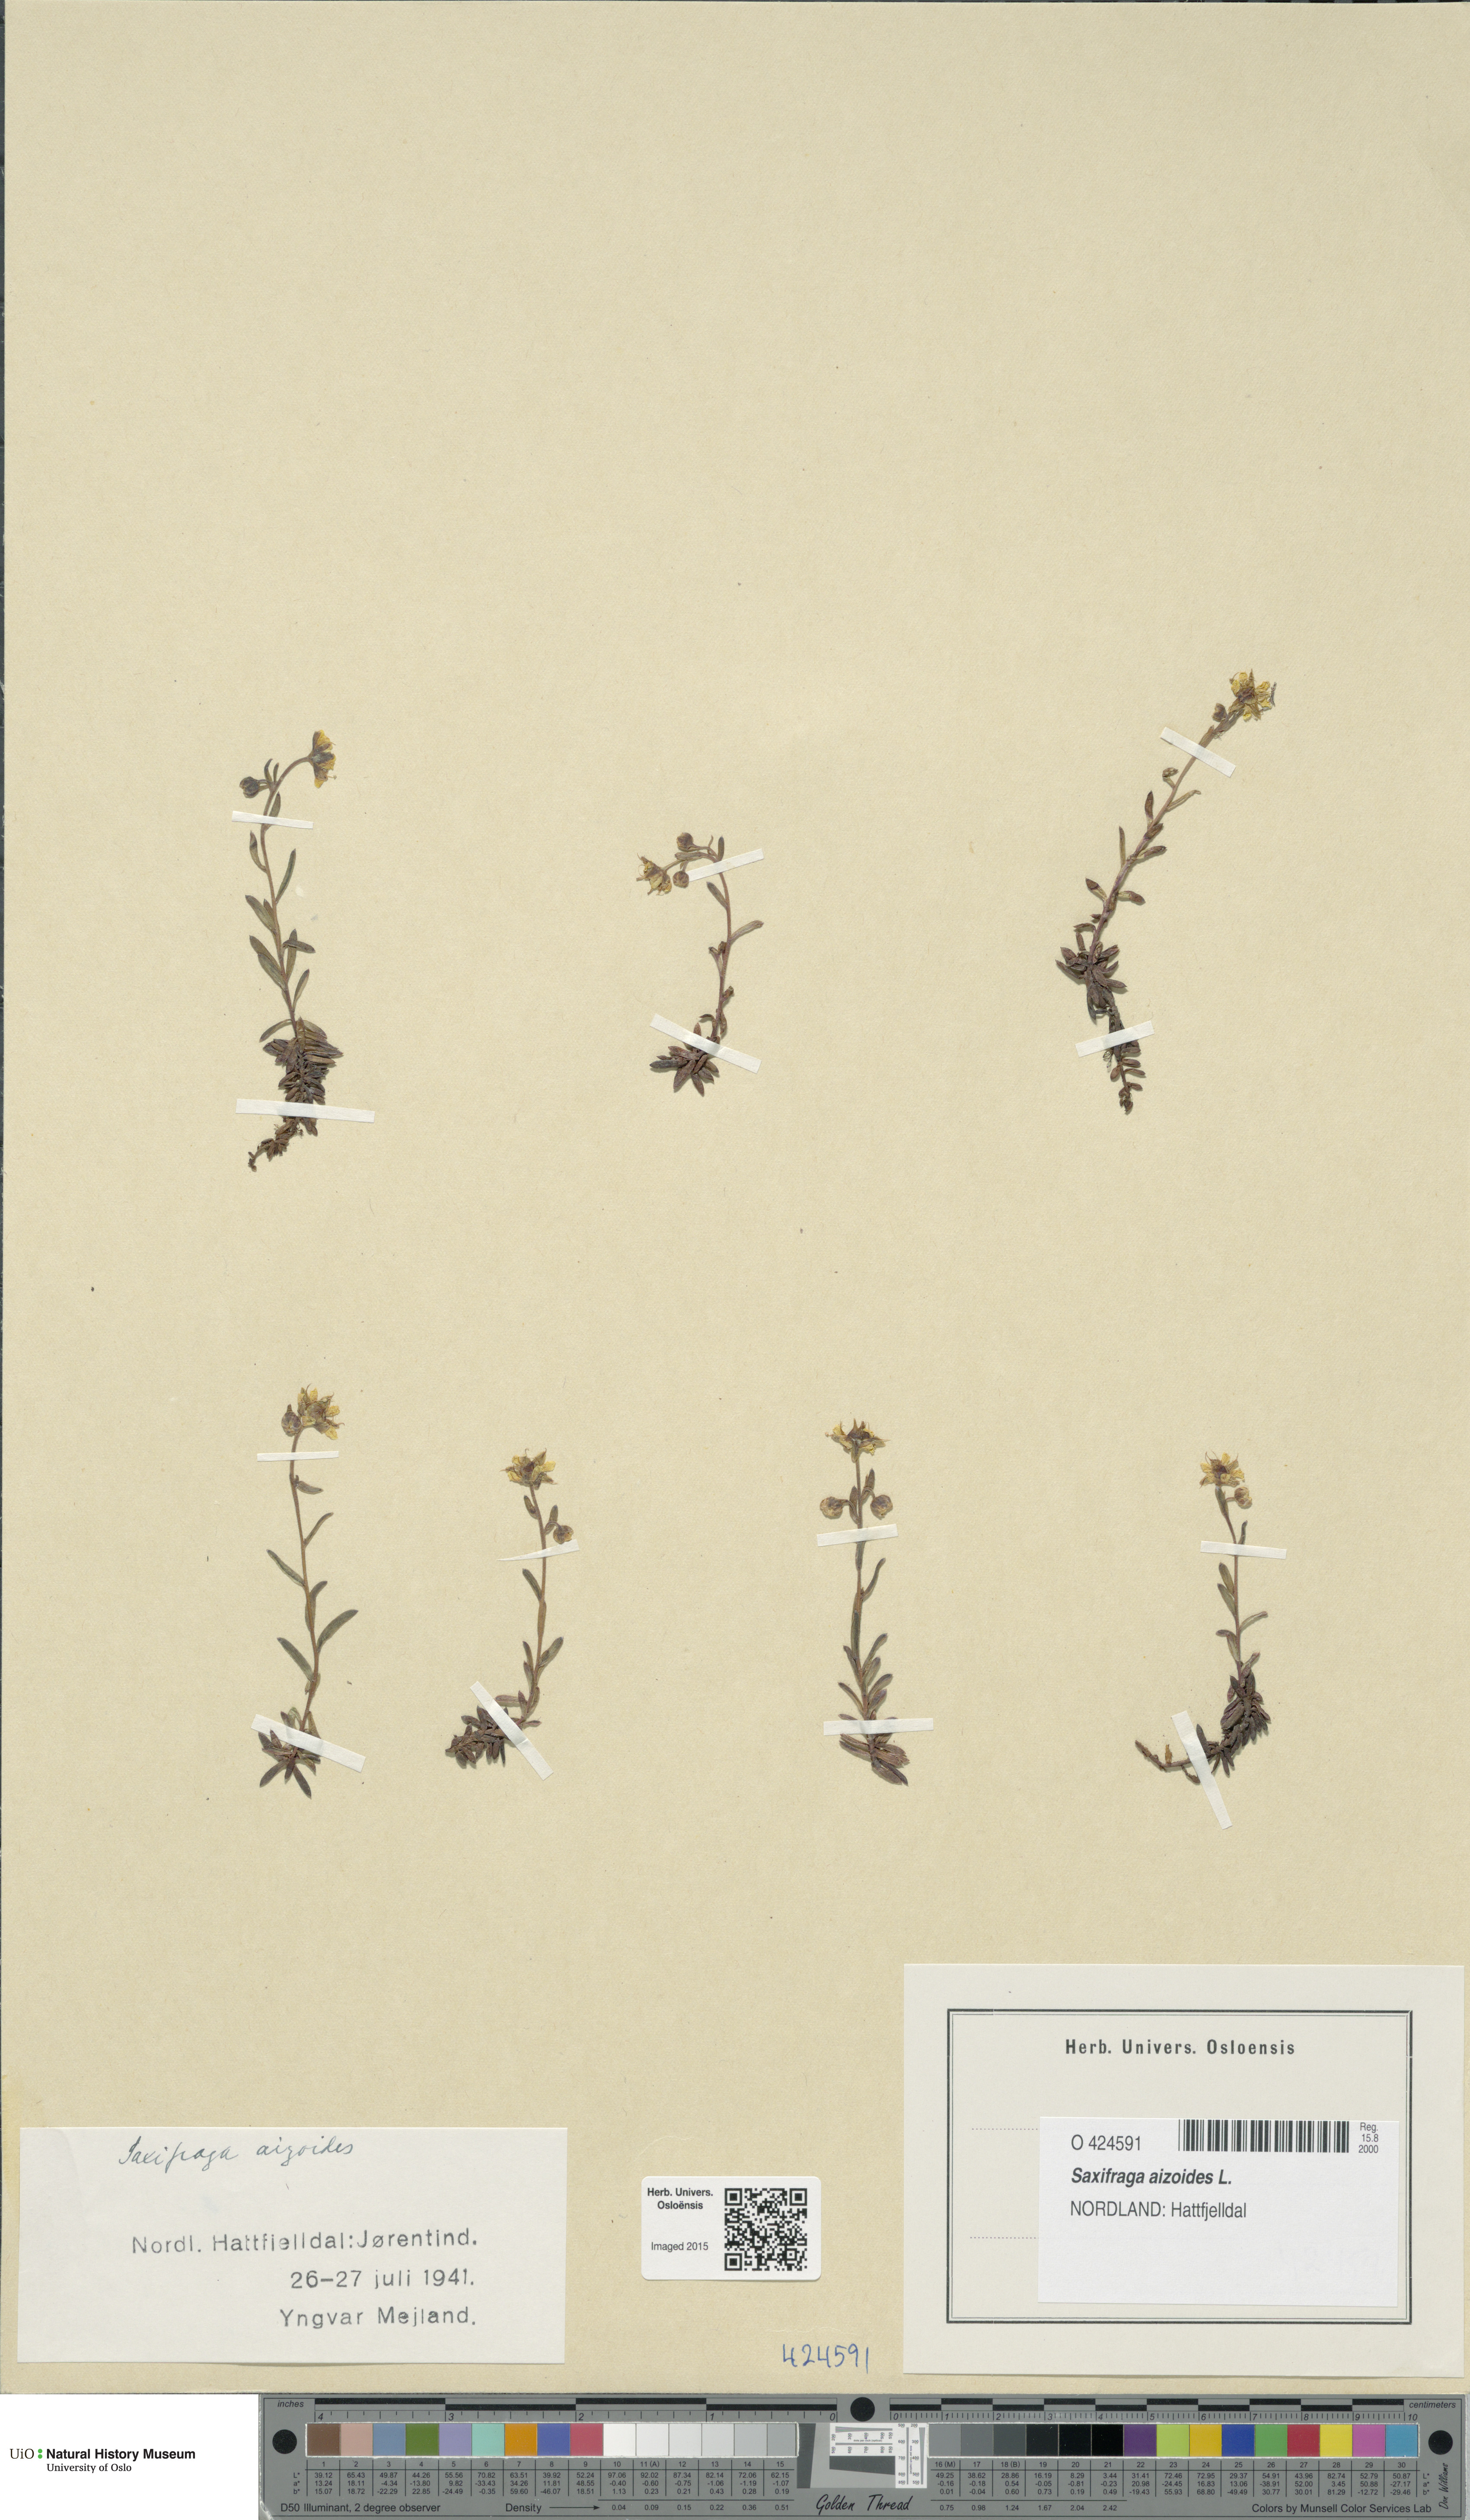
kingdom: Plantae
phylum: Tracheophyta
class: Magnoliopsida
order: Saxifragales
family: Saxifragaceae
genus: Saxifraga
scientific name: Saxifraga aizoides
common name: Yellow mountain saxifrage
